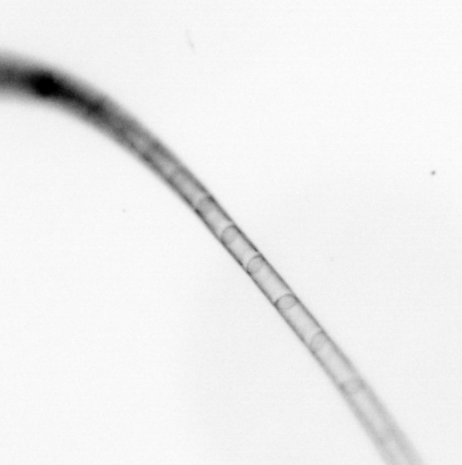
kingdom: Chromista
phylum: Ochrophyta
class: Bacillariophyceae
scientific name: Bacillariophyceae
